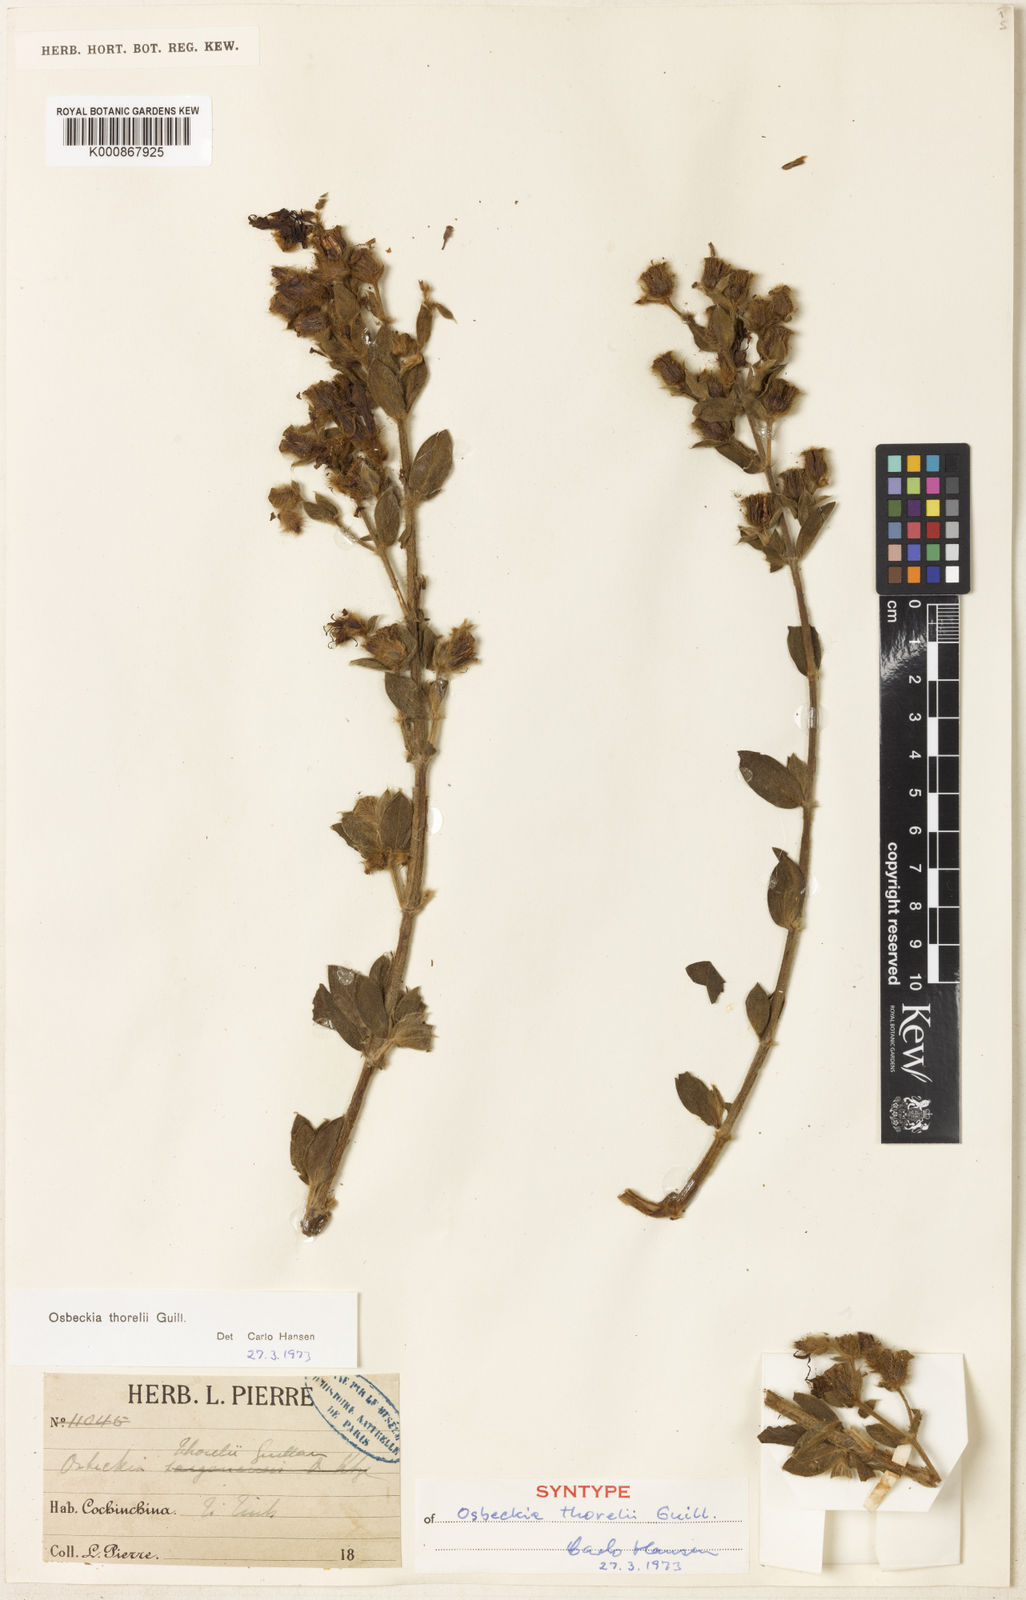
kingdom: Plantae
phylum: Tracheophyta
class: Magnoliopsida
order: Myrtales
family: Melastomataceae
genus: Osbeckia
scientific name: Osbeckia thorelii
